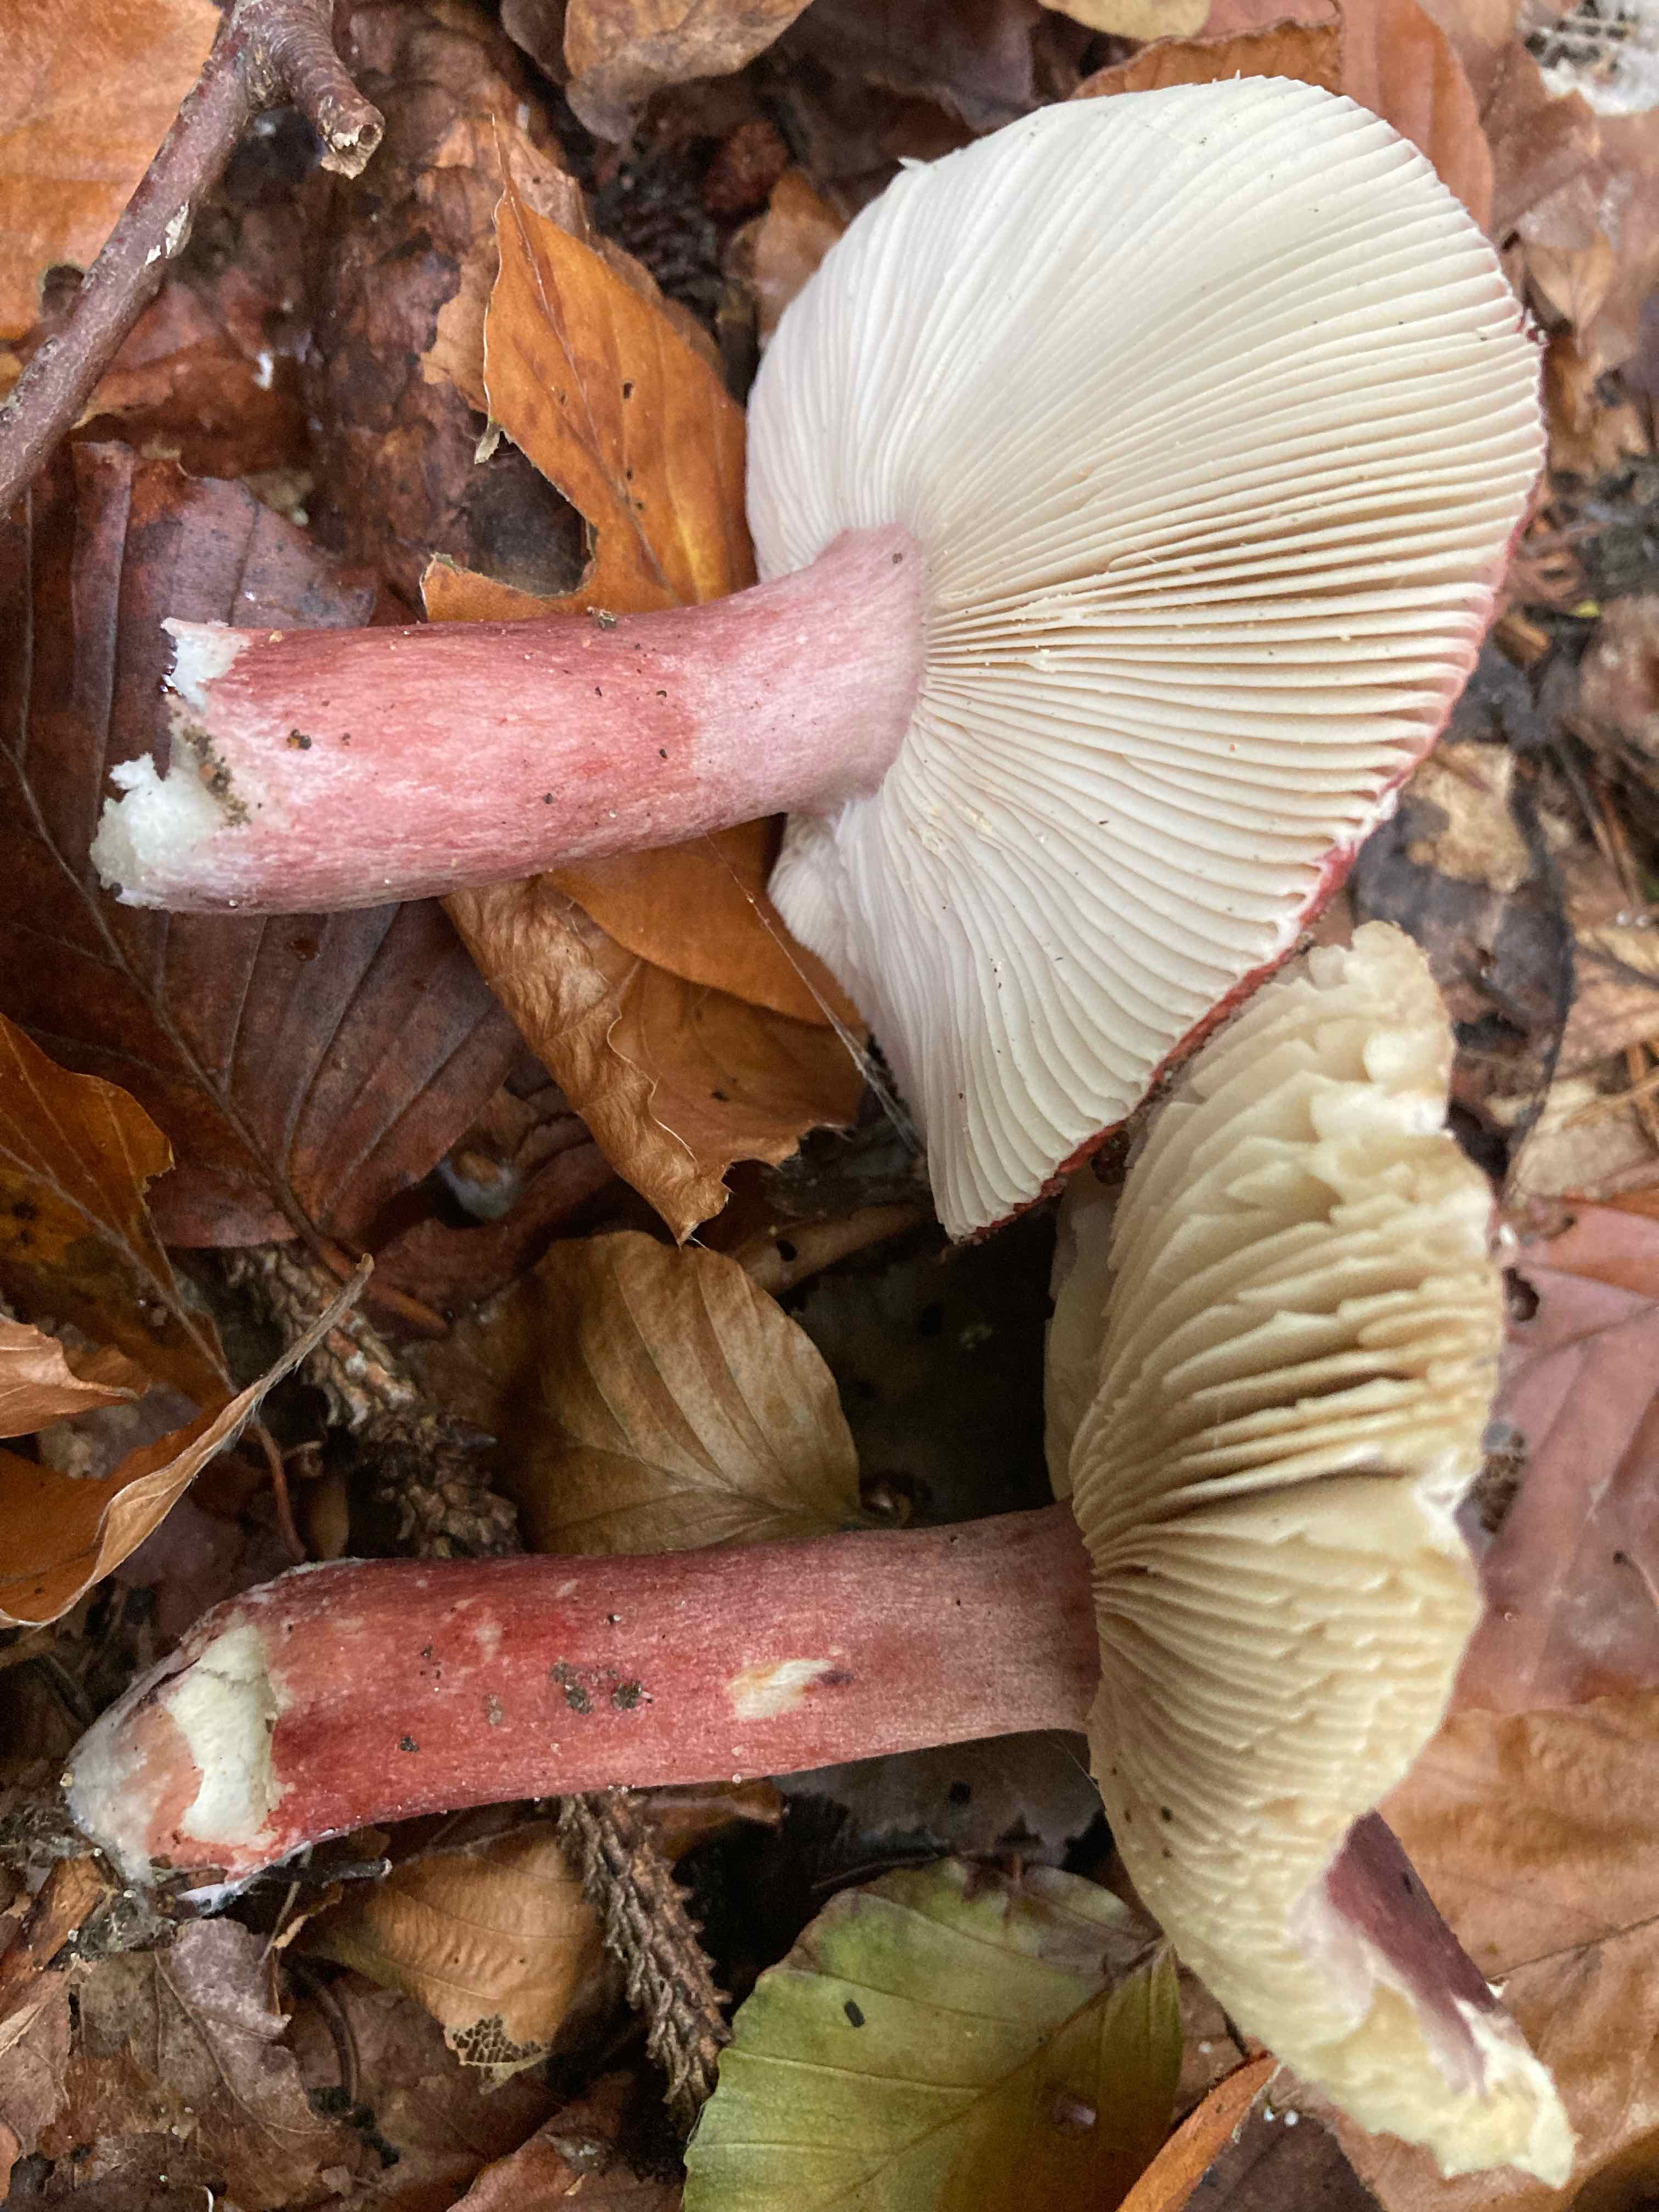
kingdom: Fungi
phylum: Basidiomycota
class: Agaricomycetes
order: Russulales
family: Russulaceae
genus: Russula
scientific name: Russula queletii
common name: Quélets skørhat
